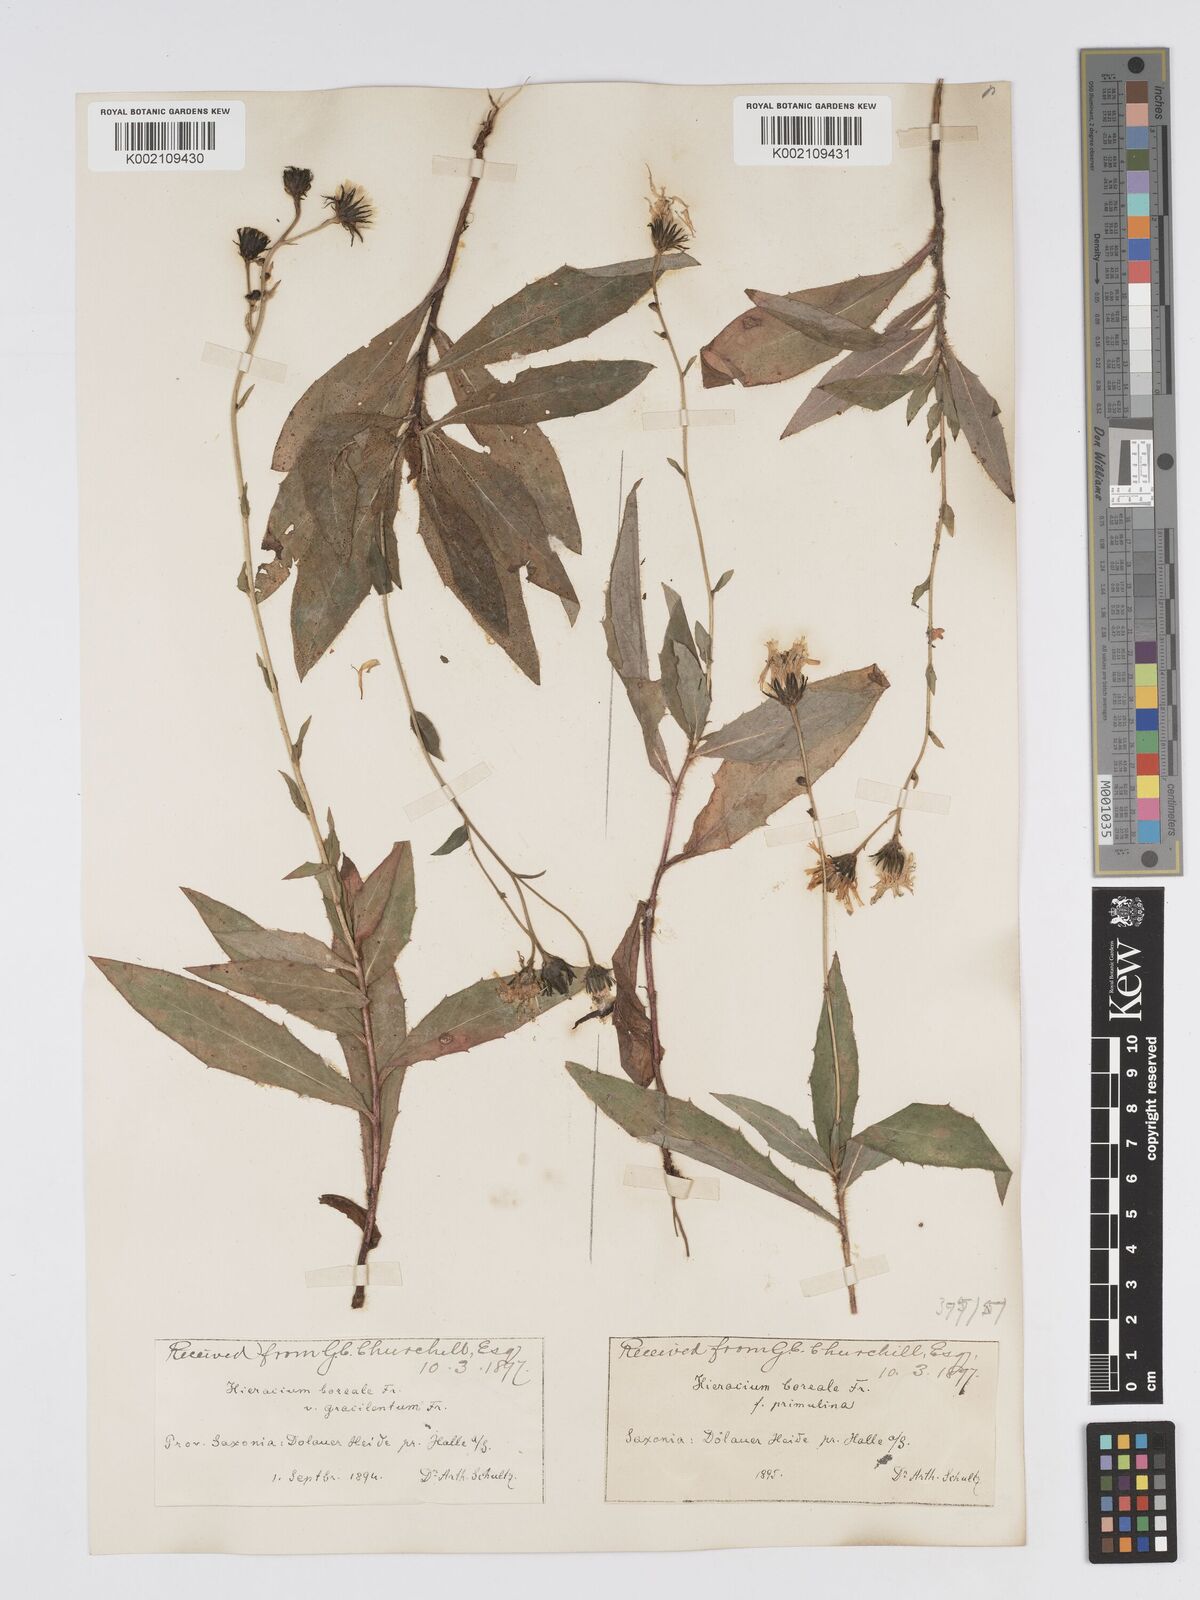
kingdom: Plantae
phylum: Tracheophyta
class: Magnoliopsida
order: Asterales
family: Asteraceae
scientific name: Asteraceae
